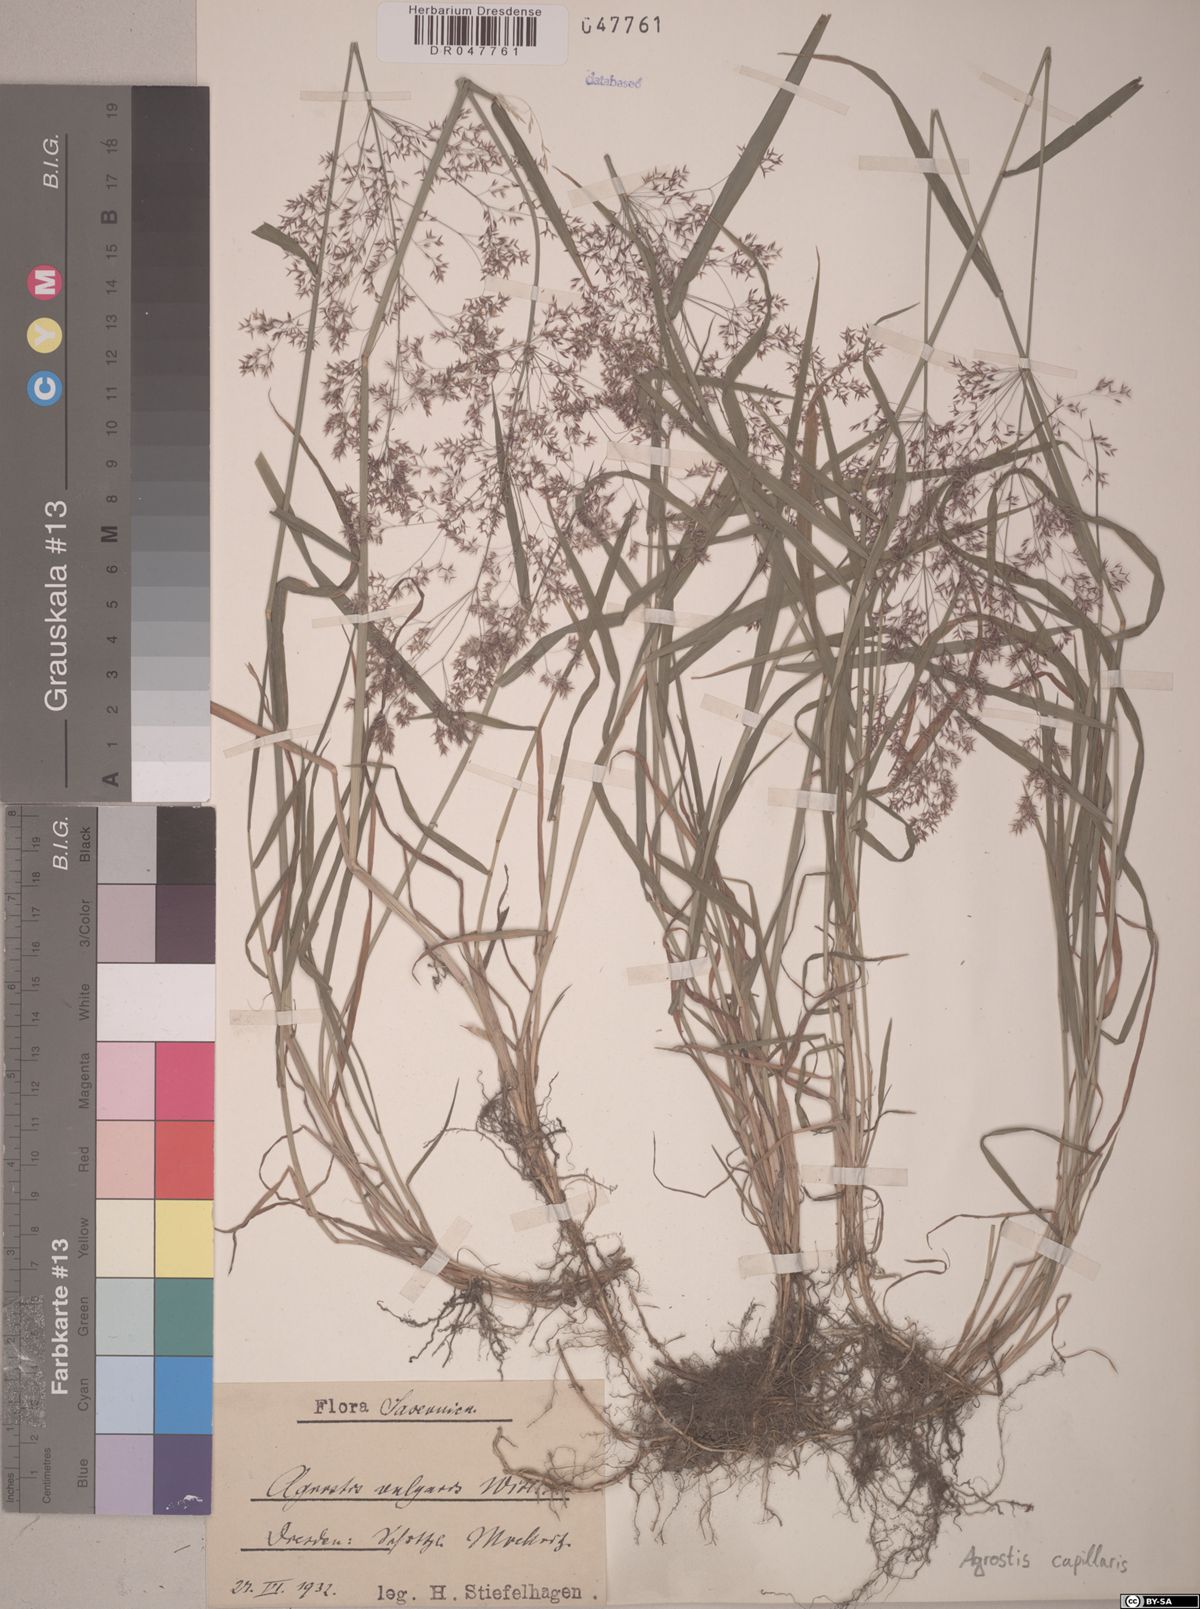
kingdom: Plantae
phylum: Tracheophyta
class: Liliopsida
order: Poales
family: Poaceae
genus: Agrostis
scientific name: Agrostis capillaris
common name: Colonial bentgrass
